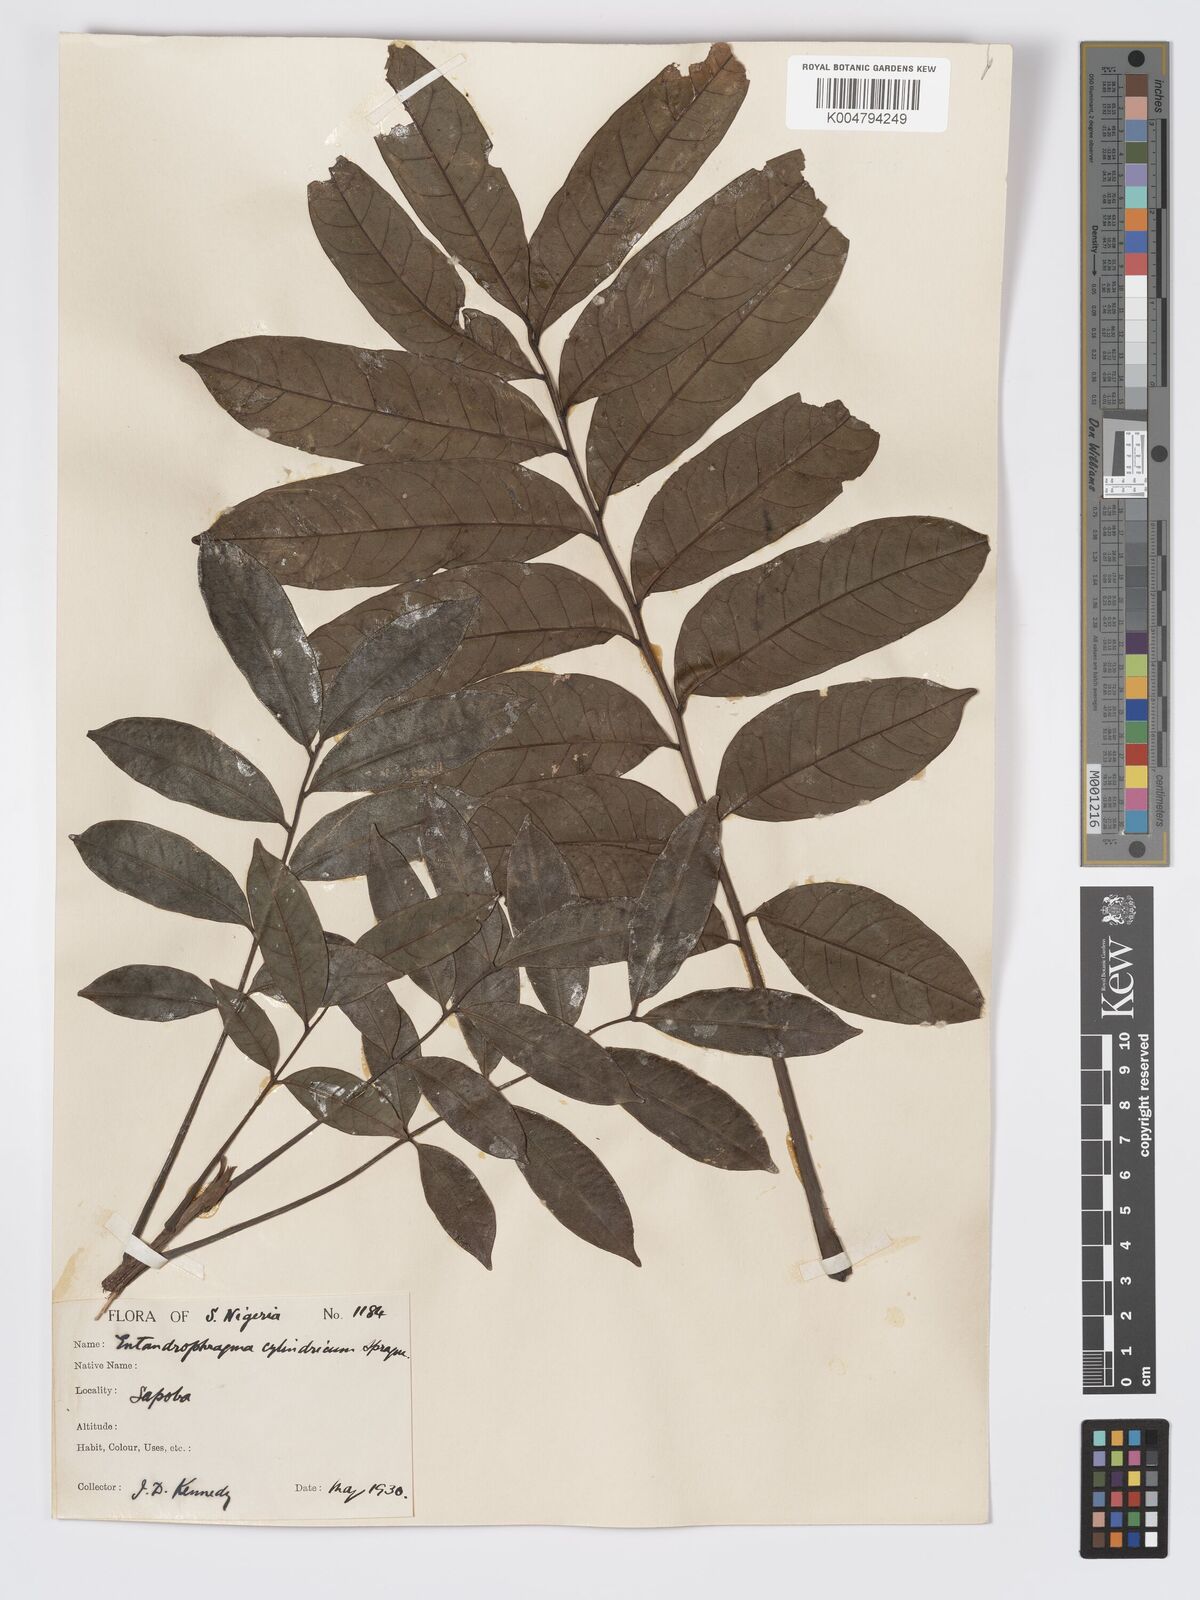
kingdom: Plantae
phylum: Tracheophyta
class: Magnoliopsida
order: Sapindales
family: Meliaceae
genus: Entandrophragma
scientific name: Entandrophragma cylindricum
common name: Sapele
